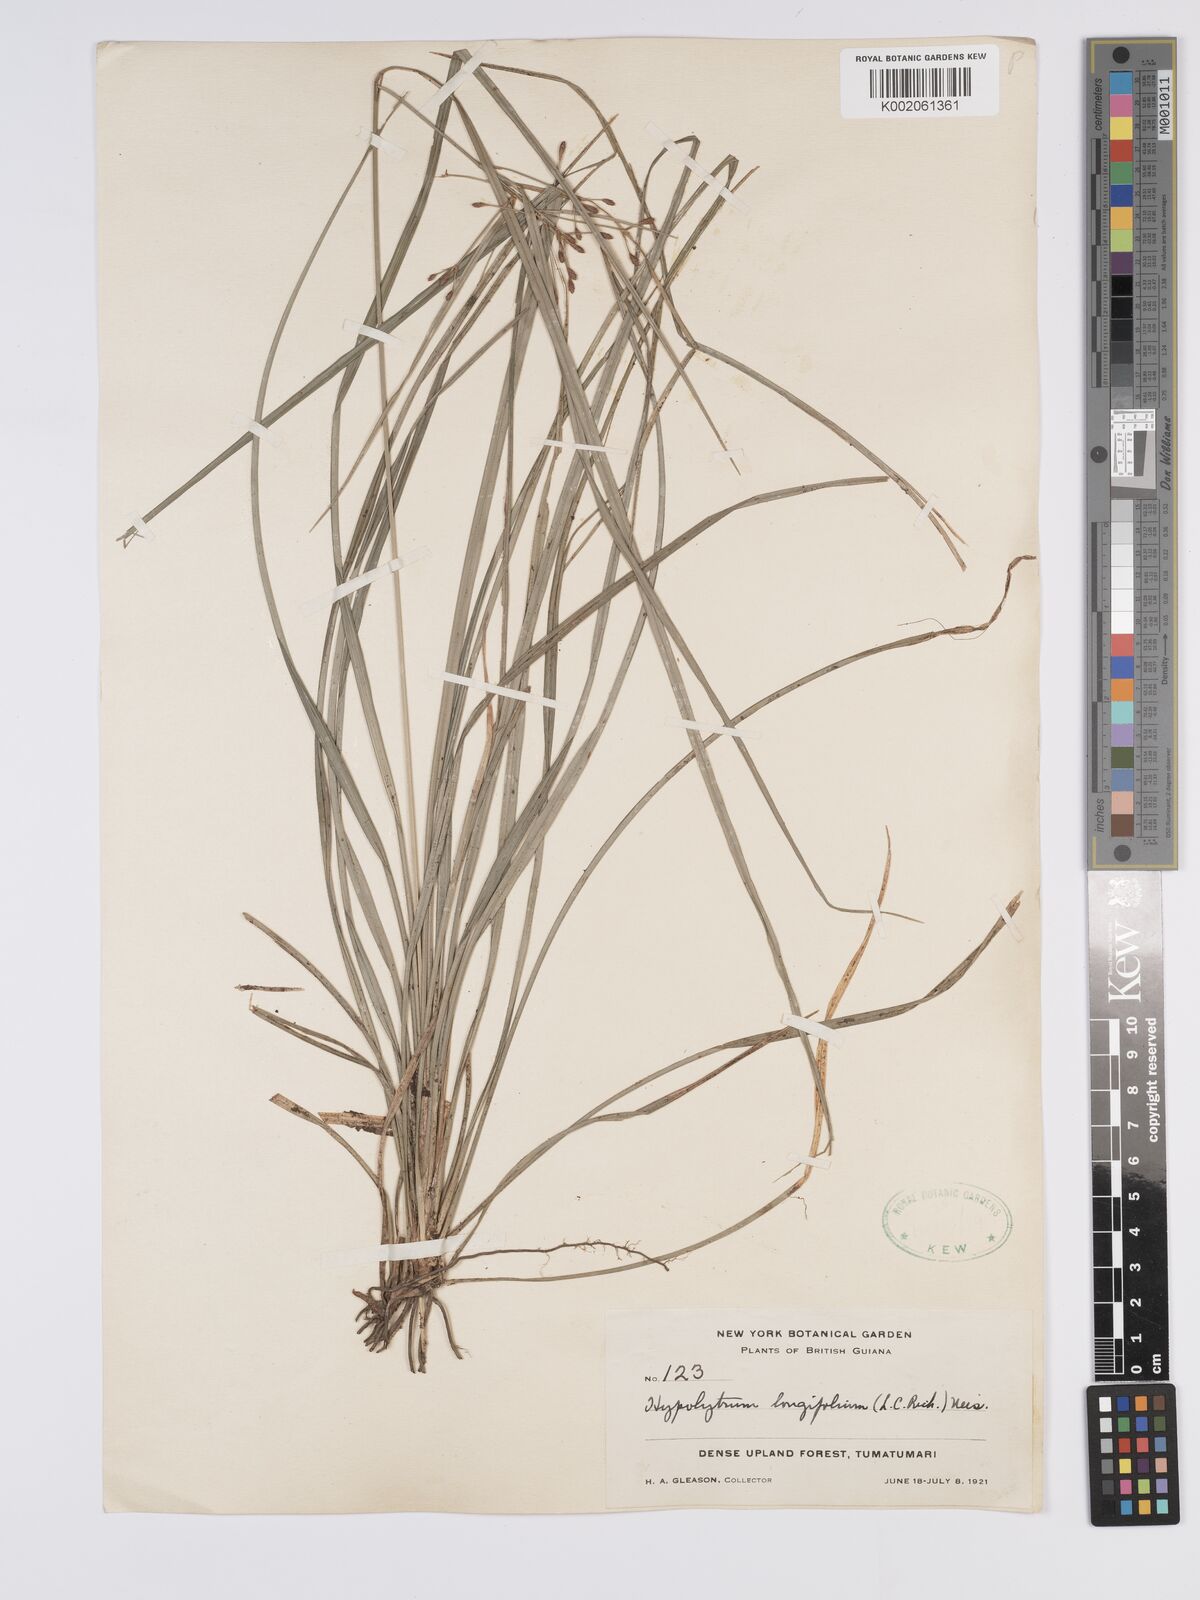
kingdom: Plantae
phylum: Tracheophyta
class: Liliopsida
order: Poales
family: Cyperaceae
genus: Hypolytrum
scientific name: Hypolytrum longifolium
